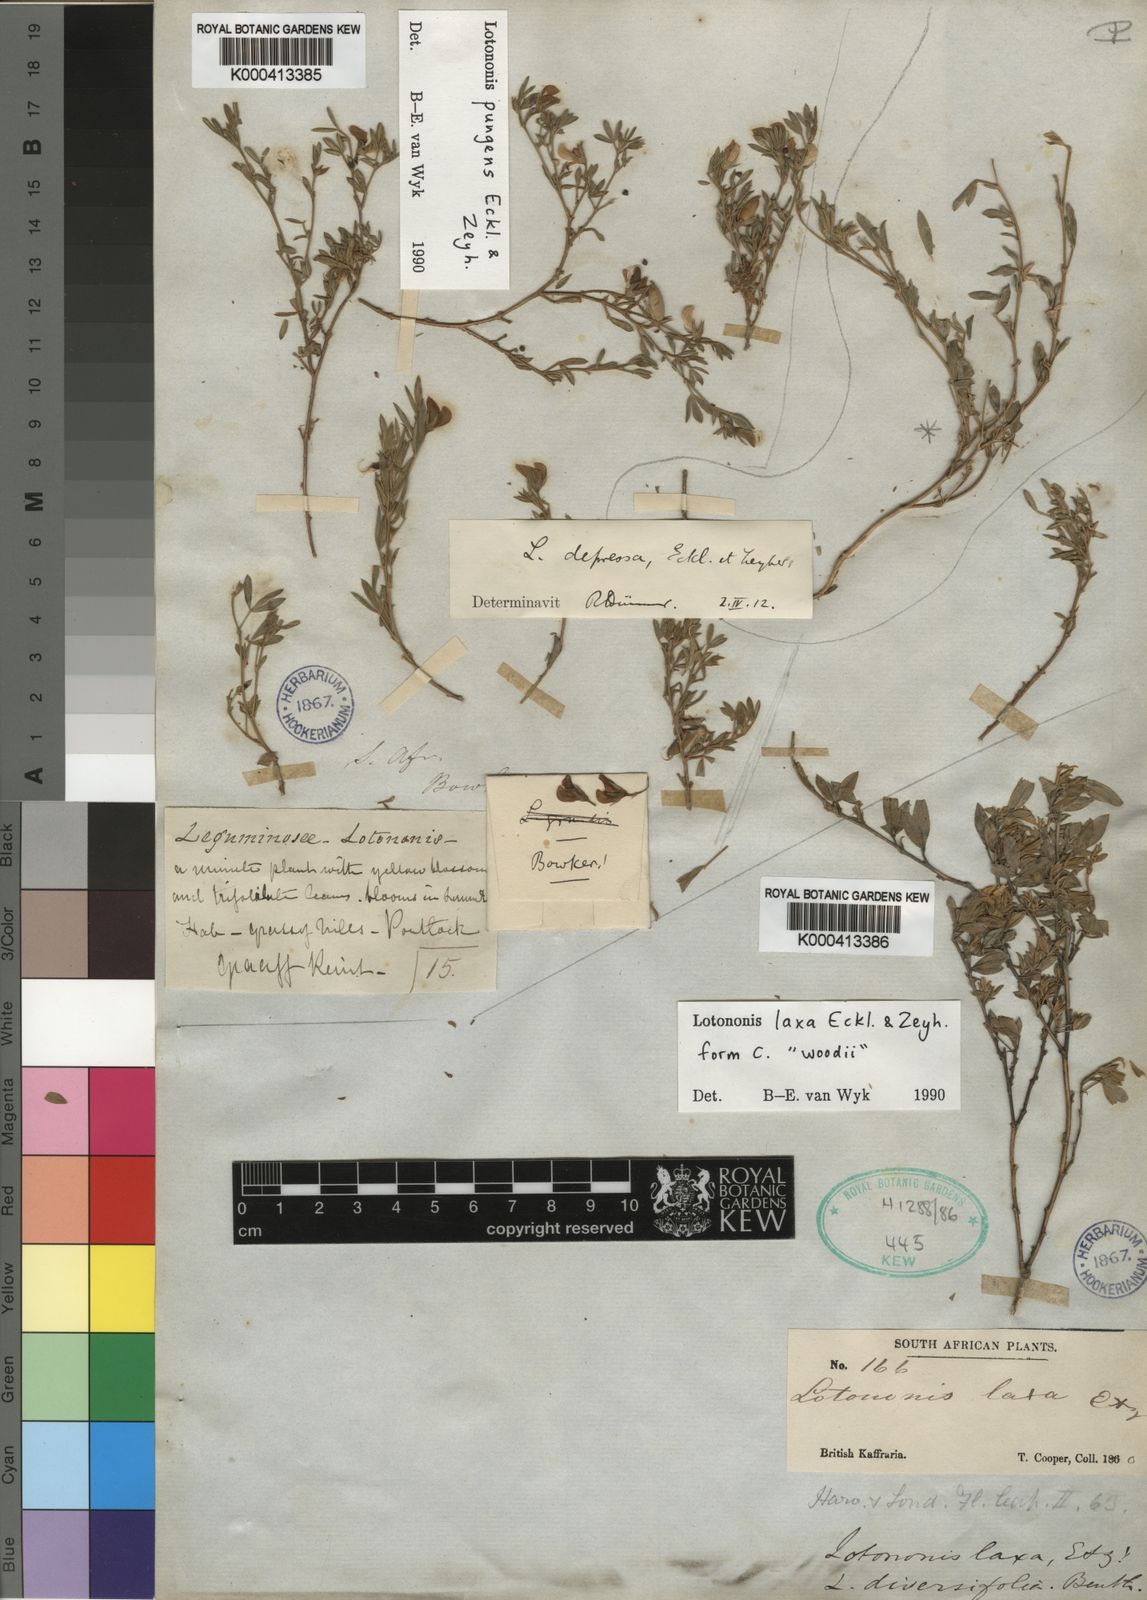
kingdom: Plantae
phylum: Tracheophyta
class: Magnoliopsida
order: Fabales
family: Fabaceae
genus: Lotononis
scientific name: Lotononis laxa
